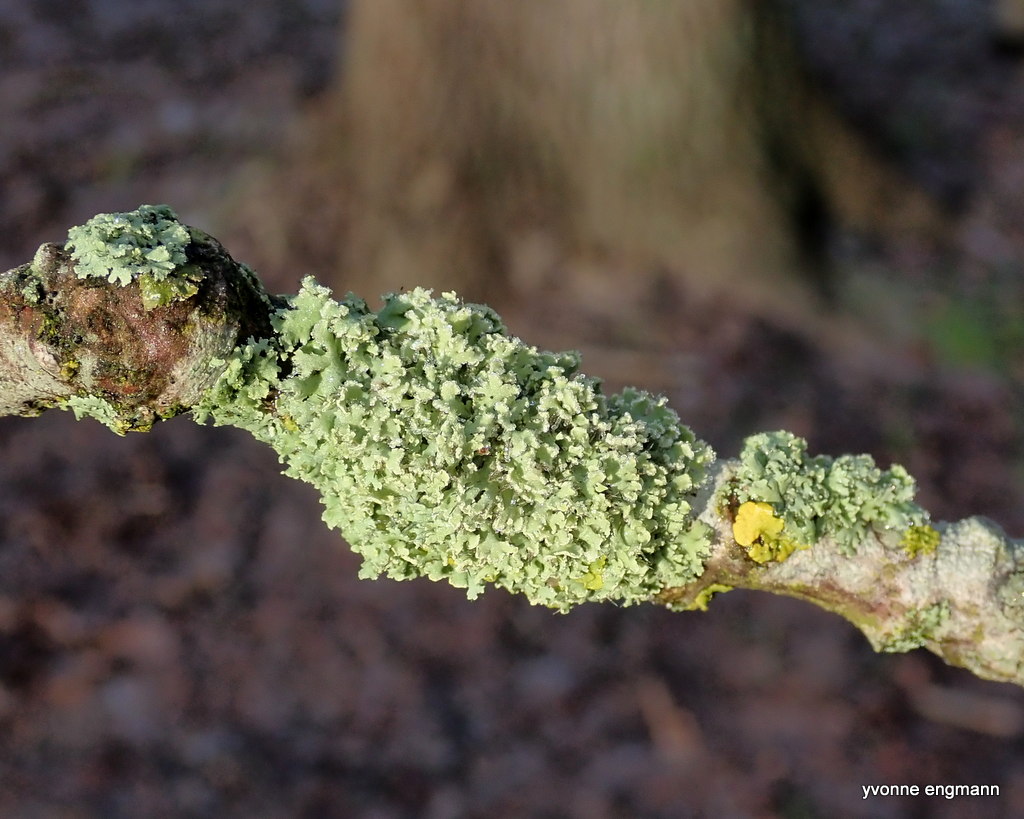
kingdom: Fungi
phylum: Ascomycota
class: Lecanoromycetes
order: Caliciales
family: Physciaceae
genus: Physcia
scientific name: Physcia tenella
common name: spæd rosetlav
